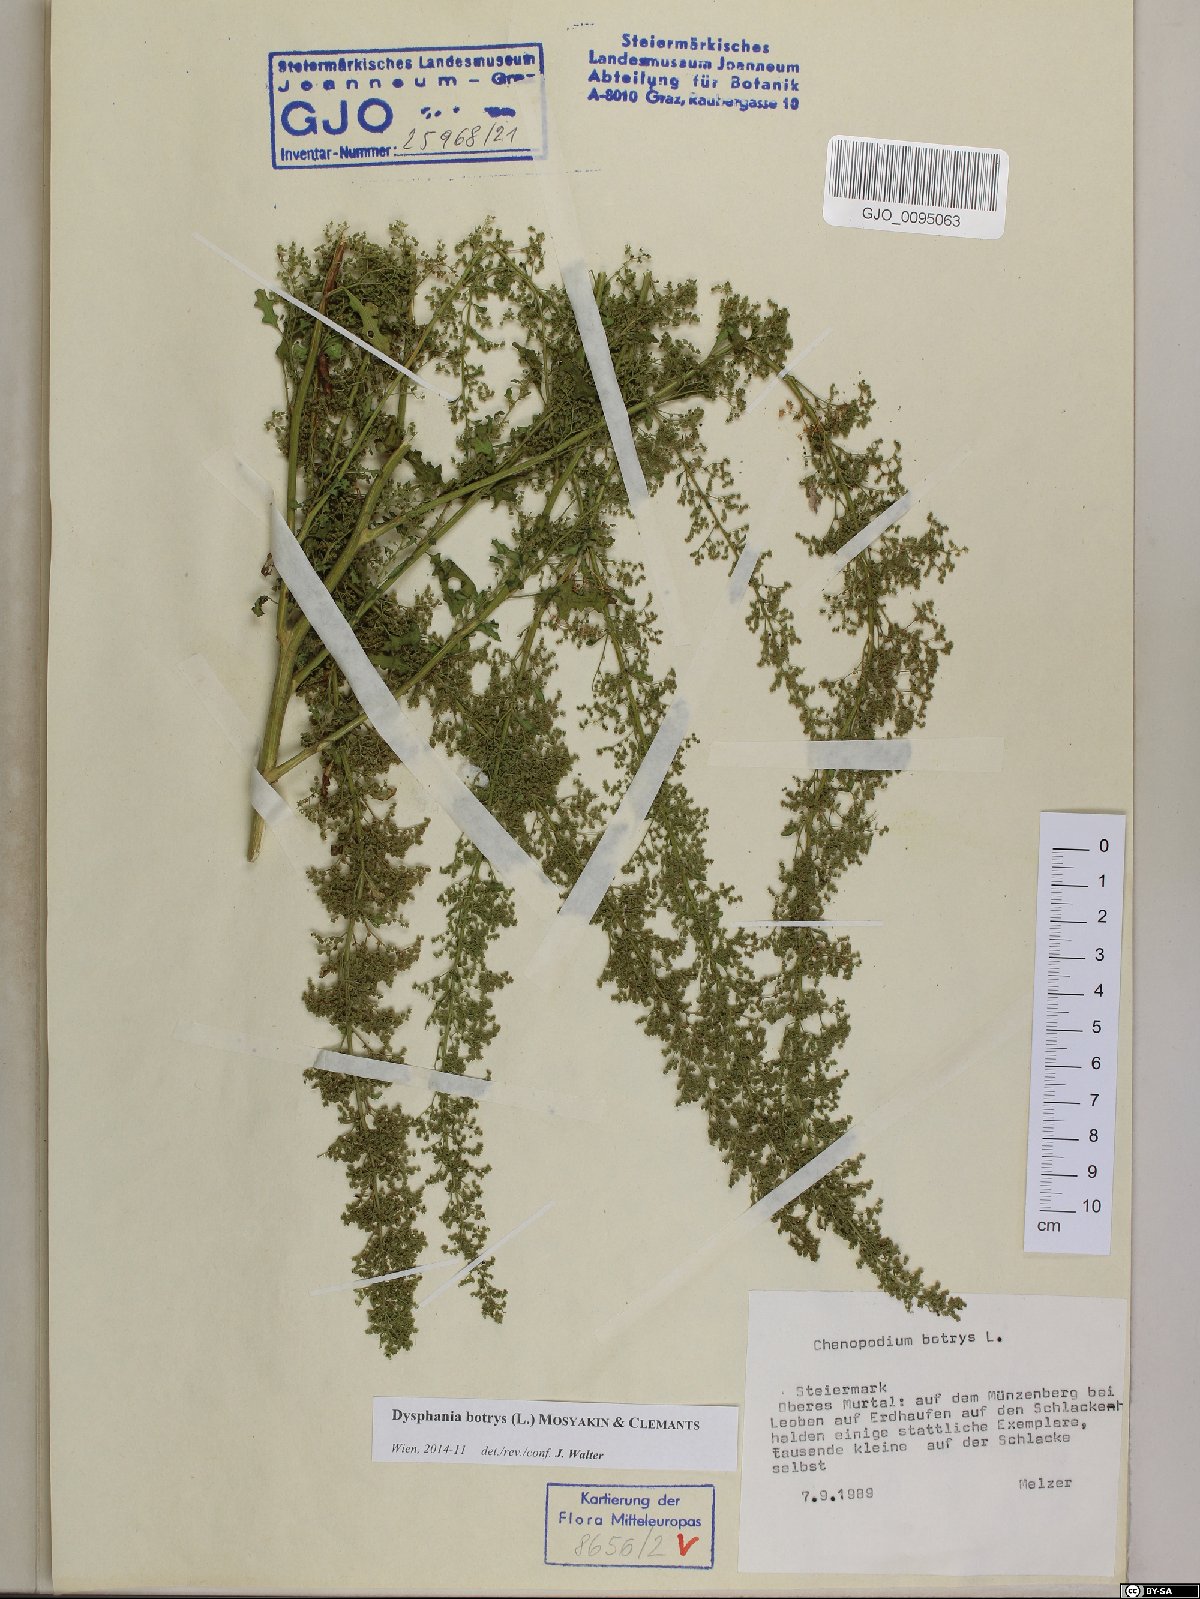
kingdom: Plantae
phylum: Tracheophyta
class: Magnoliopsida
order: Caryophyllales
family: Amaranthaceae
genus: Dysphania
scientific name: Dysphania botrys
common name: Feather-geranium
